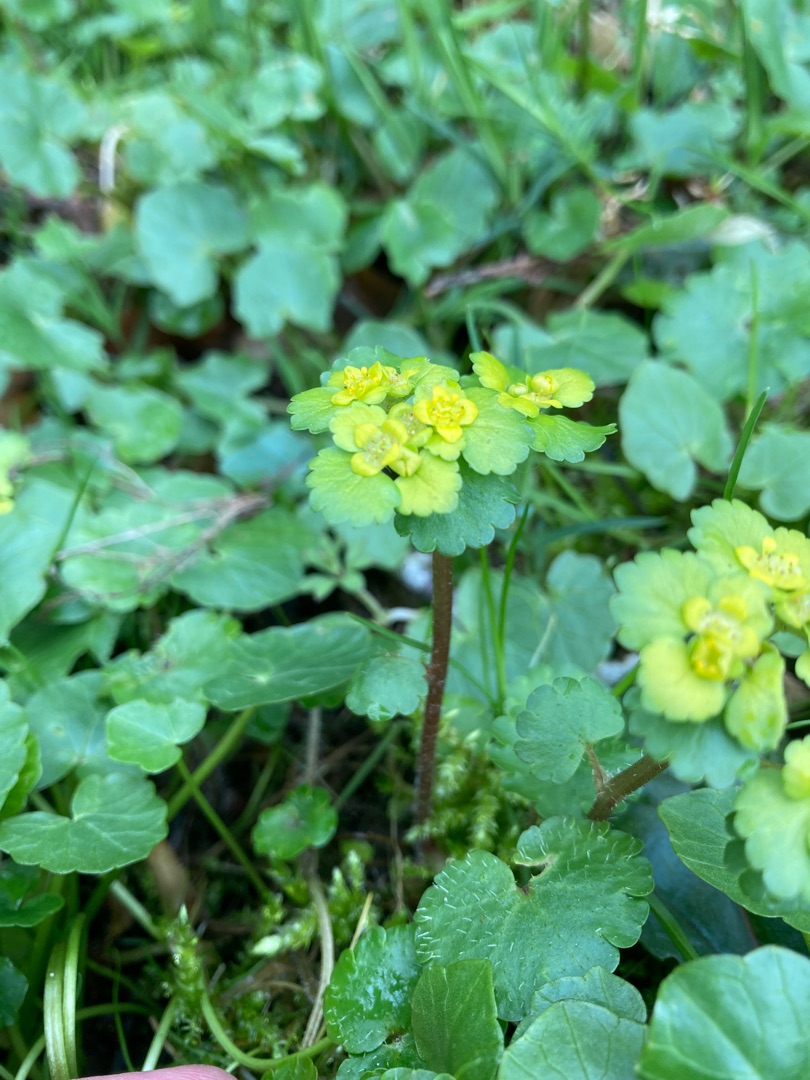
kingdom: Plantae
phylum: Tracheophyta
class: Magnoliopsida
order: Saxifragales
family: Saxifragaceae
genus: Chrysosplenium
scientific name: Chrysosplenium alternifolium
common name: Almindelig milturt
